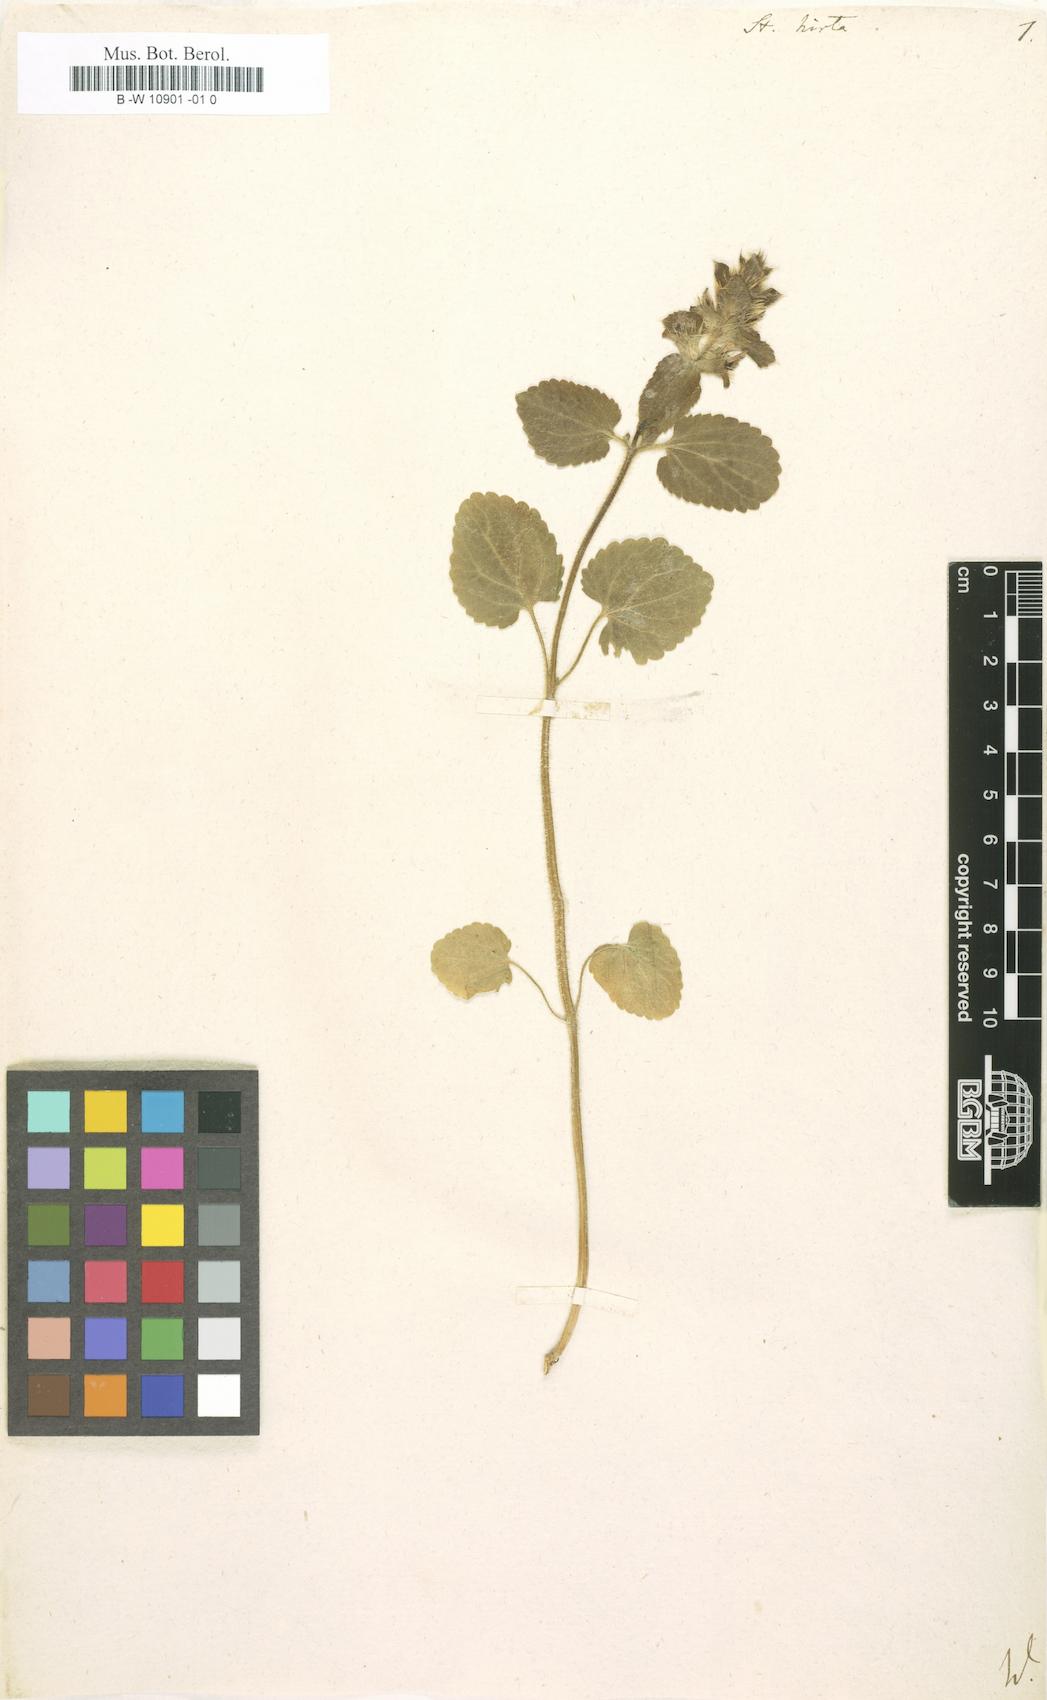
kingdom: Plantae
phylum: Tracheophyta
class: Magnoliopsida
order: Lamiales
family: Lamiaceae
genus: Stachys
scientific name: Stachys
